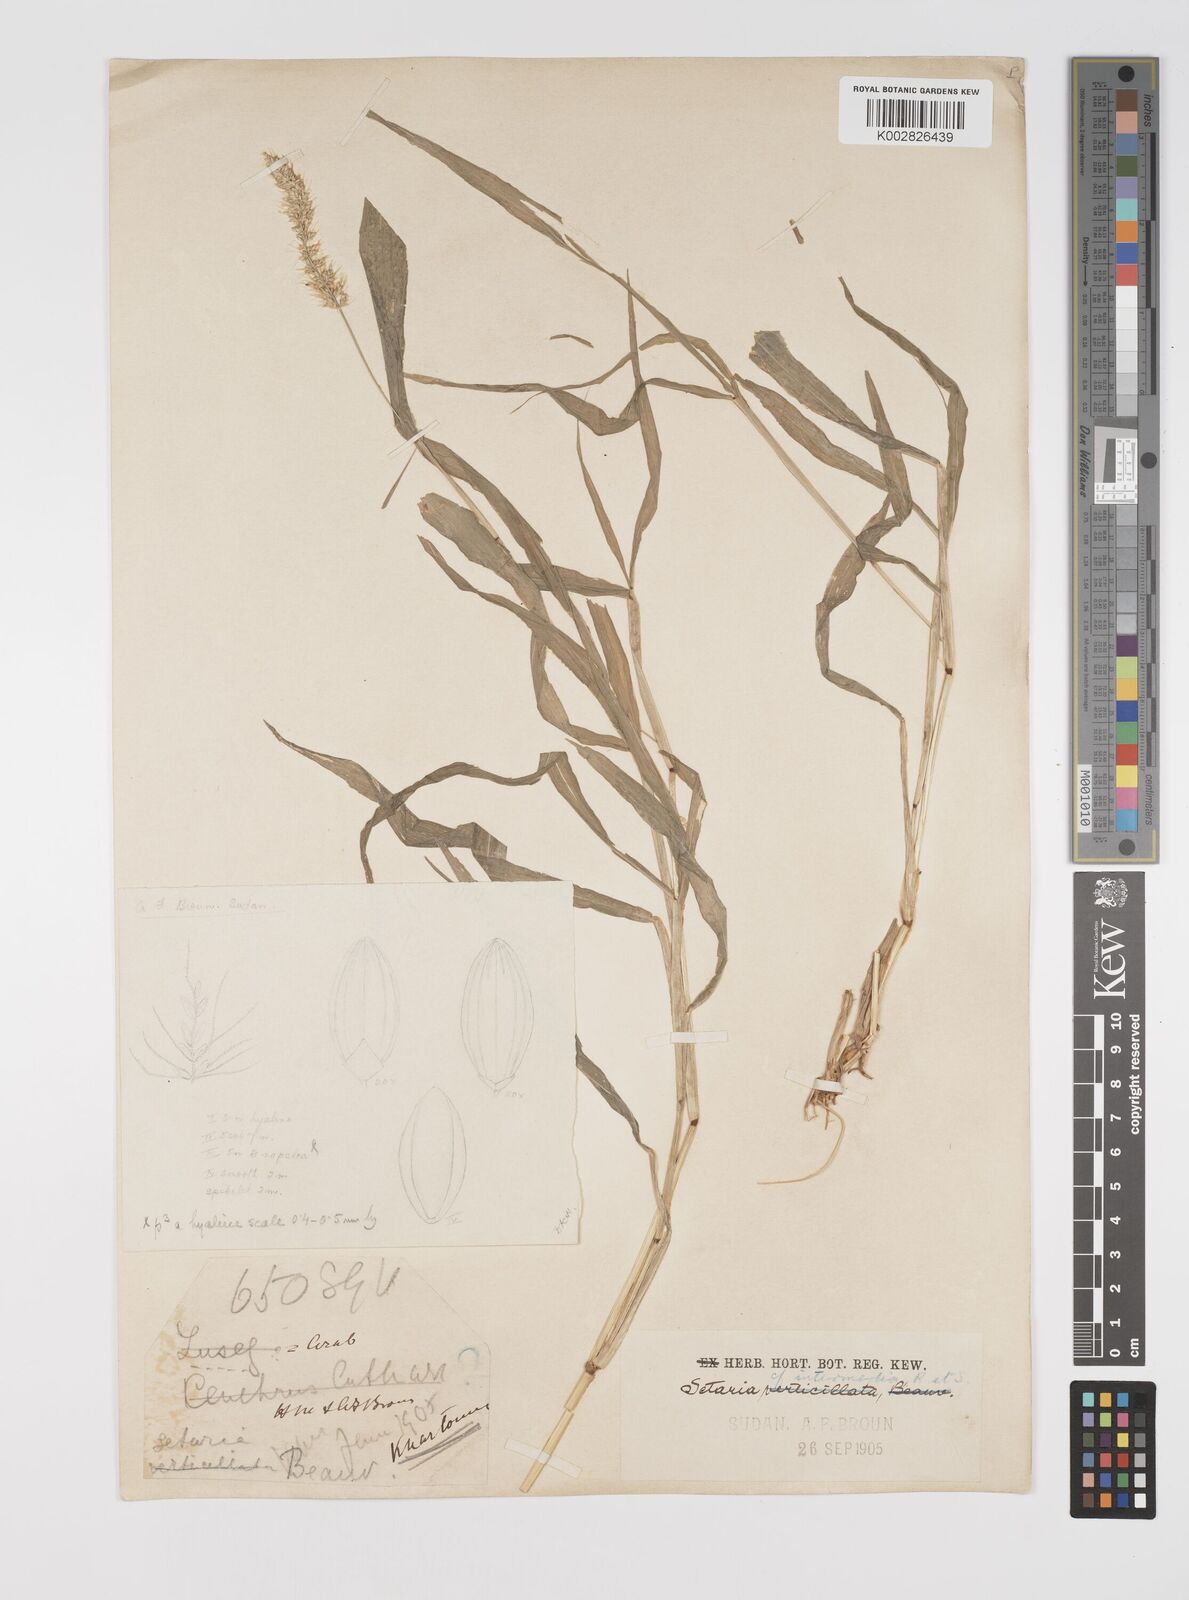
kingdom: Plantae
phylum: Tracheophyta
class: Liliopsida
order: Poales
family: Poaceae
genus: Setaria
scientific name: Setaria verticillata
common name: Hooked bristlegrass
